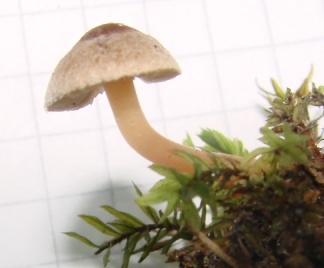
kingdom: Fungi
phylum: Basidiomycota
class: Agaricomycetes
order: Agaricales
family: Inocybaceae
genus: Inocybe
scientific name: Inocybe petiginosa
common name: liden trævlhat
